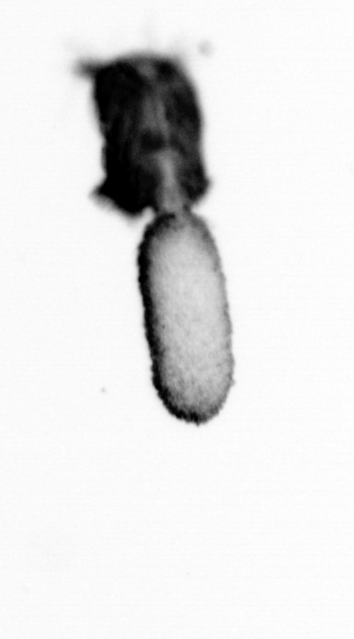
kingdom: Animalia
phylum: Arthropoda
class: Copepoda
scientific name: Copepoda
